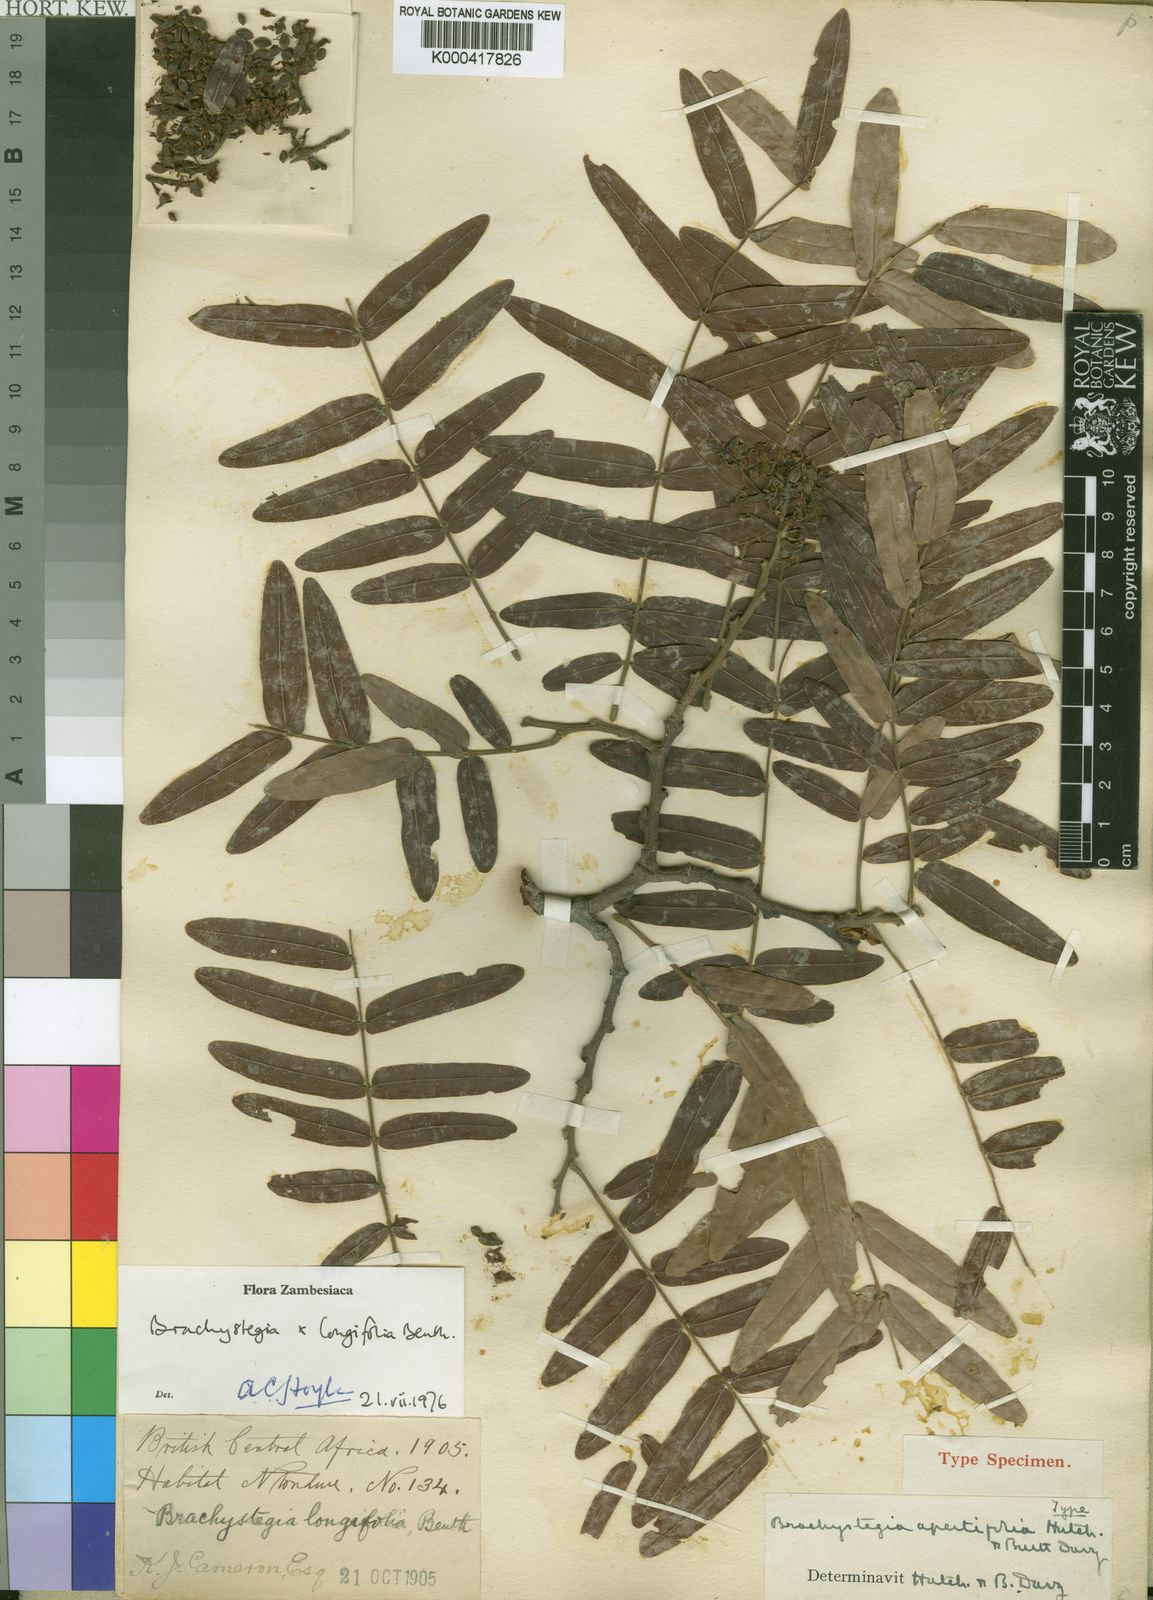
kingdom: Plantae
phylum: Tracheophyta
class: Magnoliopsida
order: Fabales
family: Fabaceae
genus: Brachystegia
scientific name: Brachystegia longifolia
